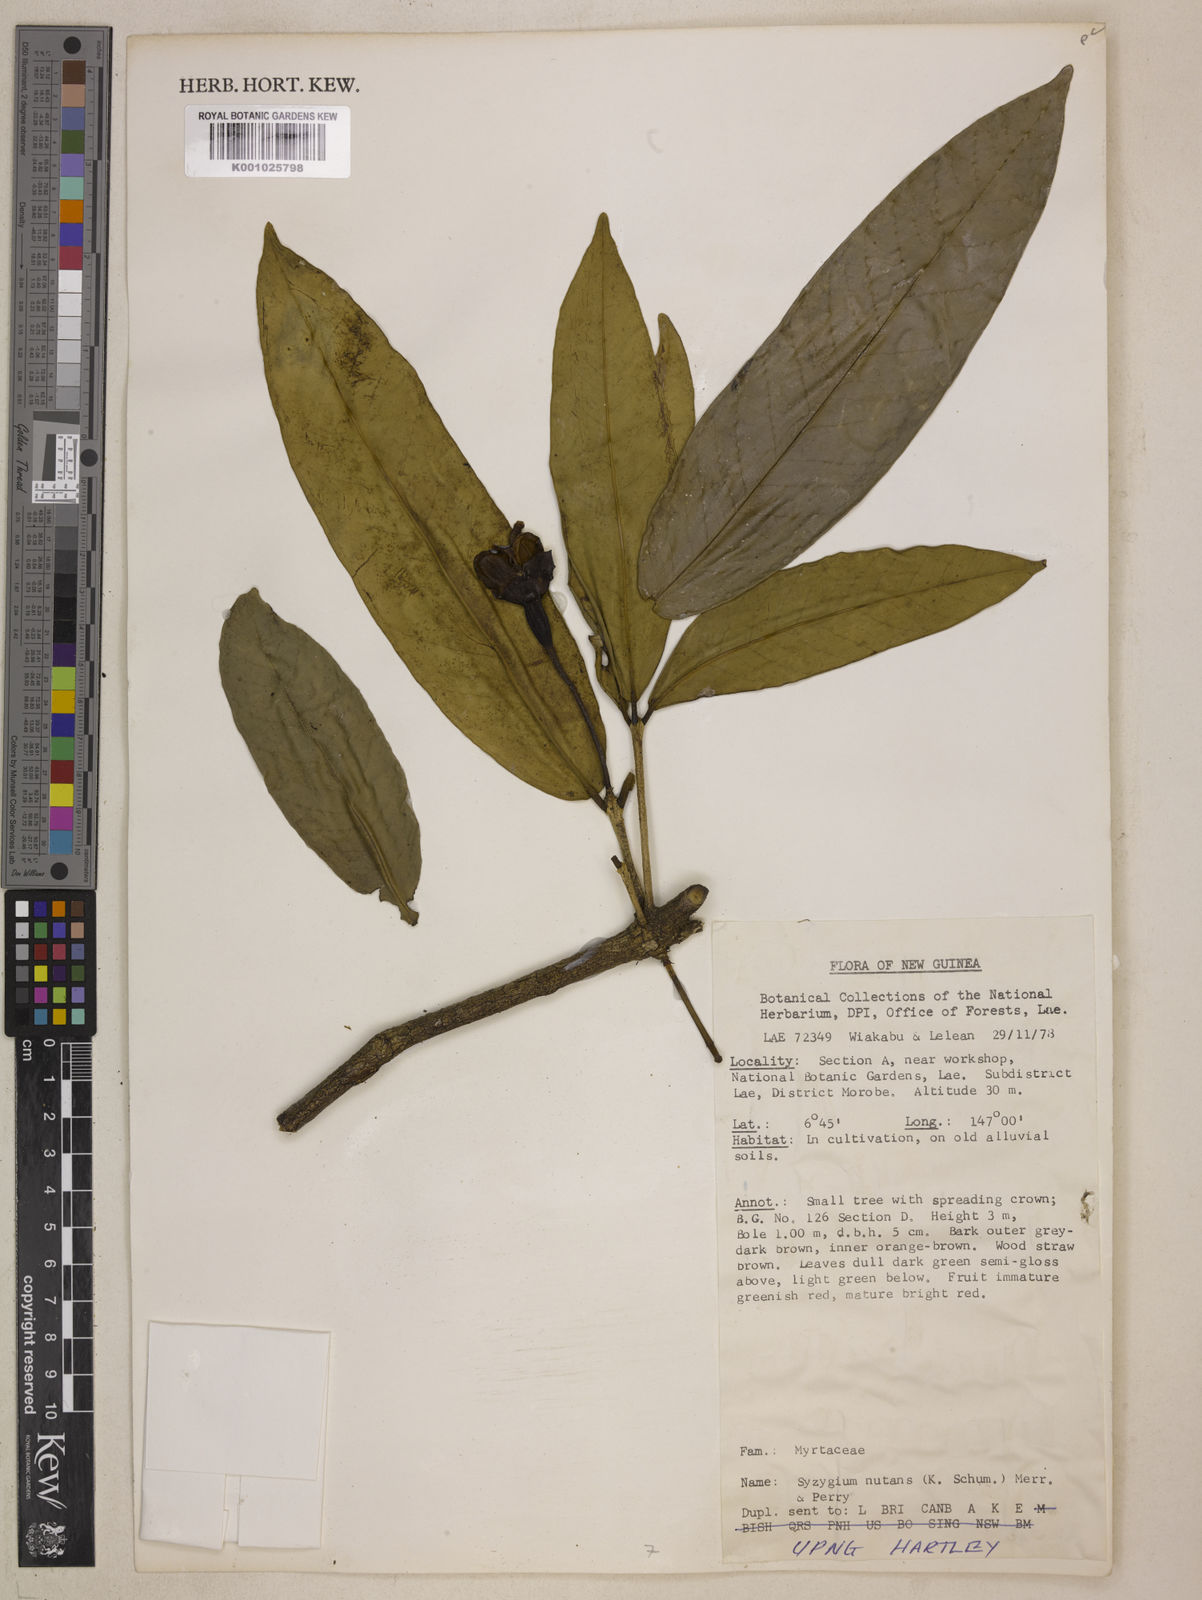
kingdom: Plantae
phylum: Tracheophyta
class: Magnoliopsida
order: Myrtales
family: Myrtaceae
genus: Syzygium
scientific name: Syzygium nutans
